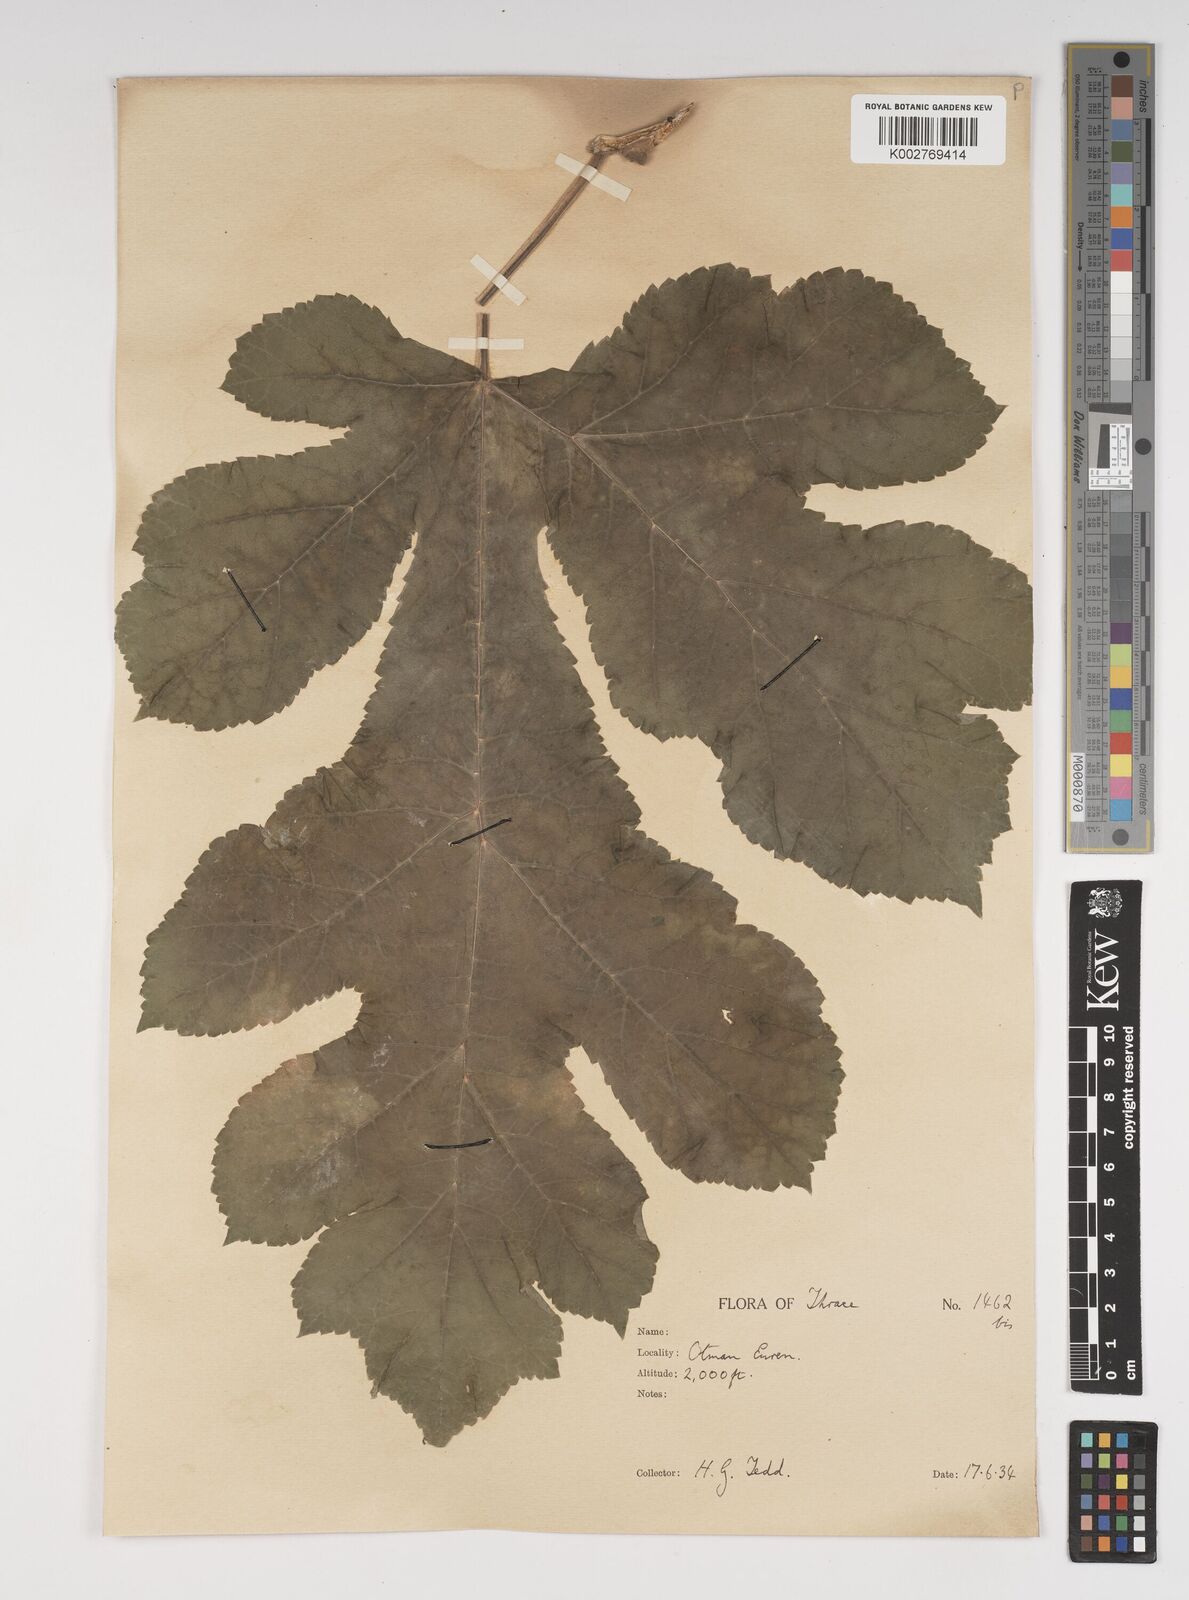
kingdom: Plantae
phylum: Tracheophyta
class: Magnoliopsida
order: Apiales
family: Apiaceae
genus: Heracleum
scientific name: Heracleum sphondylium
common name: Hogweed
